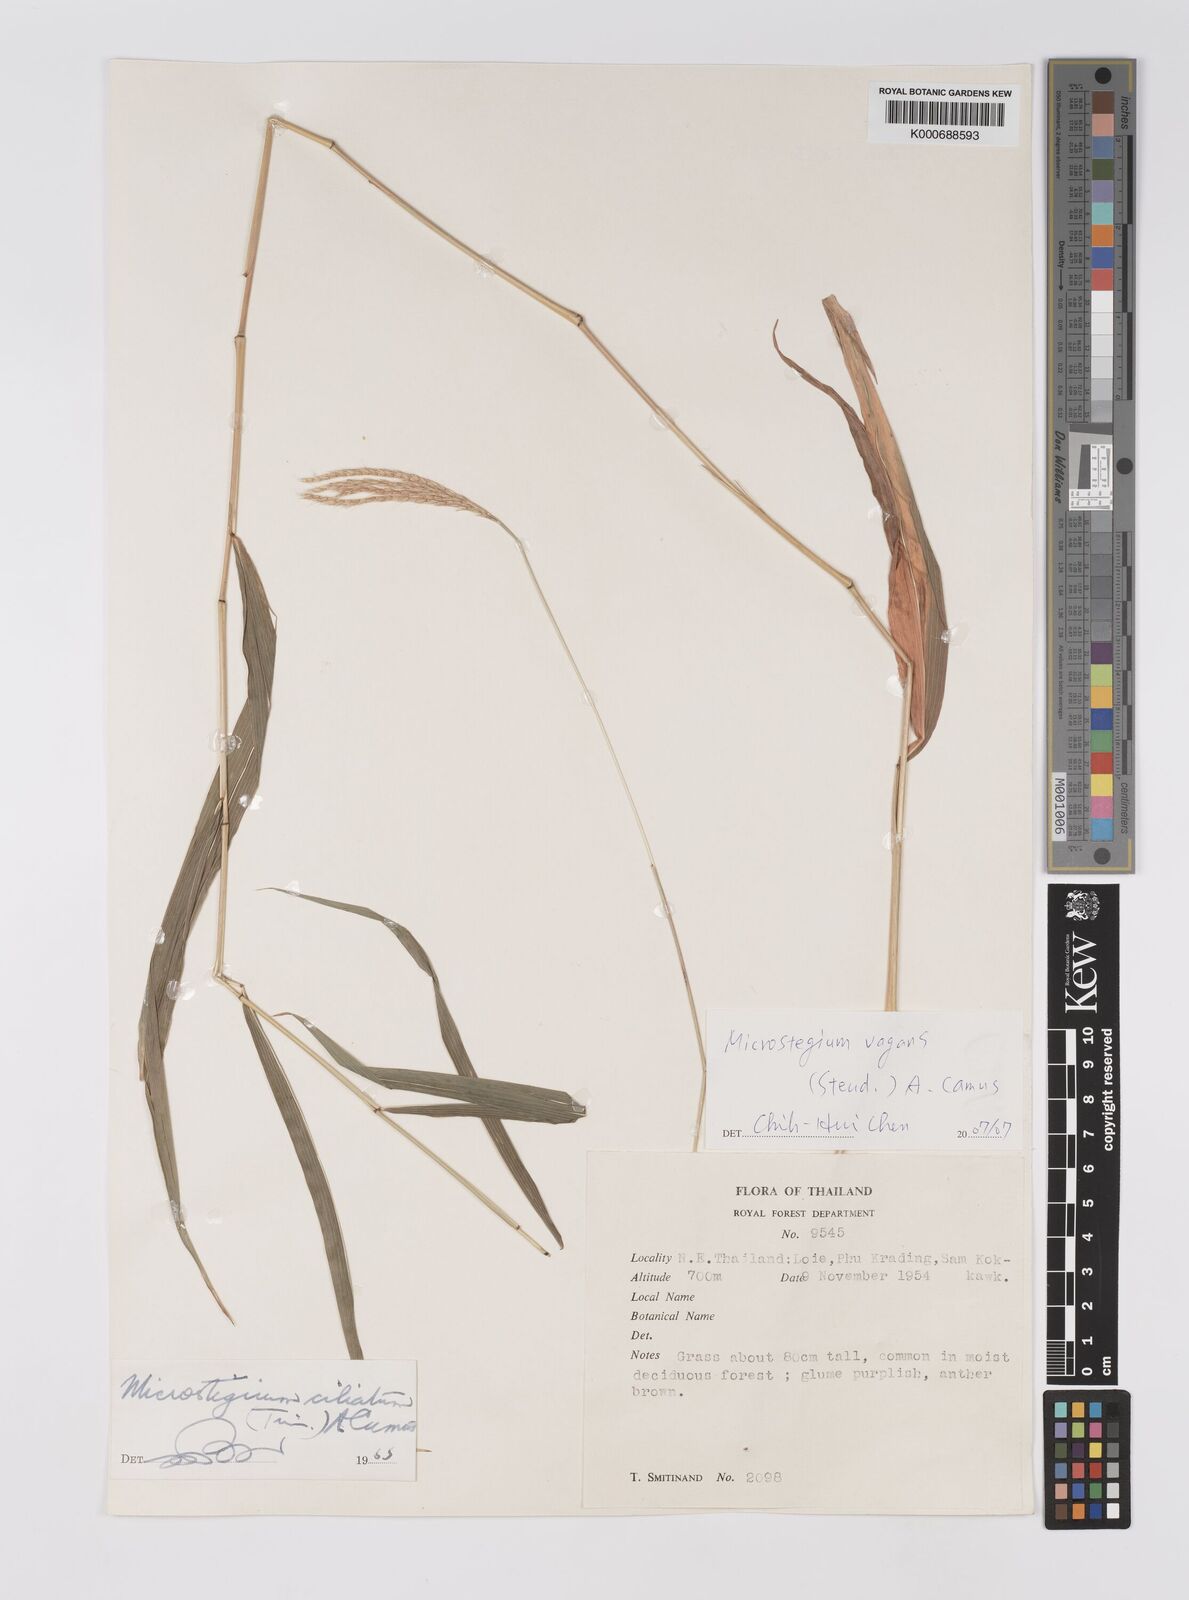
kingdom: Plantae
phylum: Tracheophyta
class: Liliopsida
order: Poales
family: Poaceae
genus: Microstegium
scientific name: Microstegium fasciculatum
